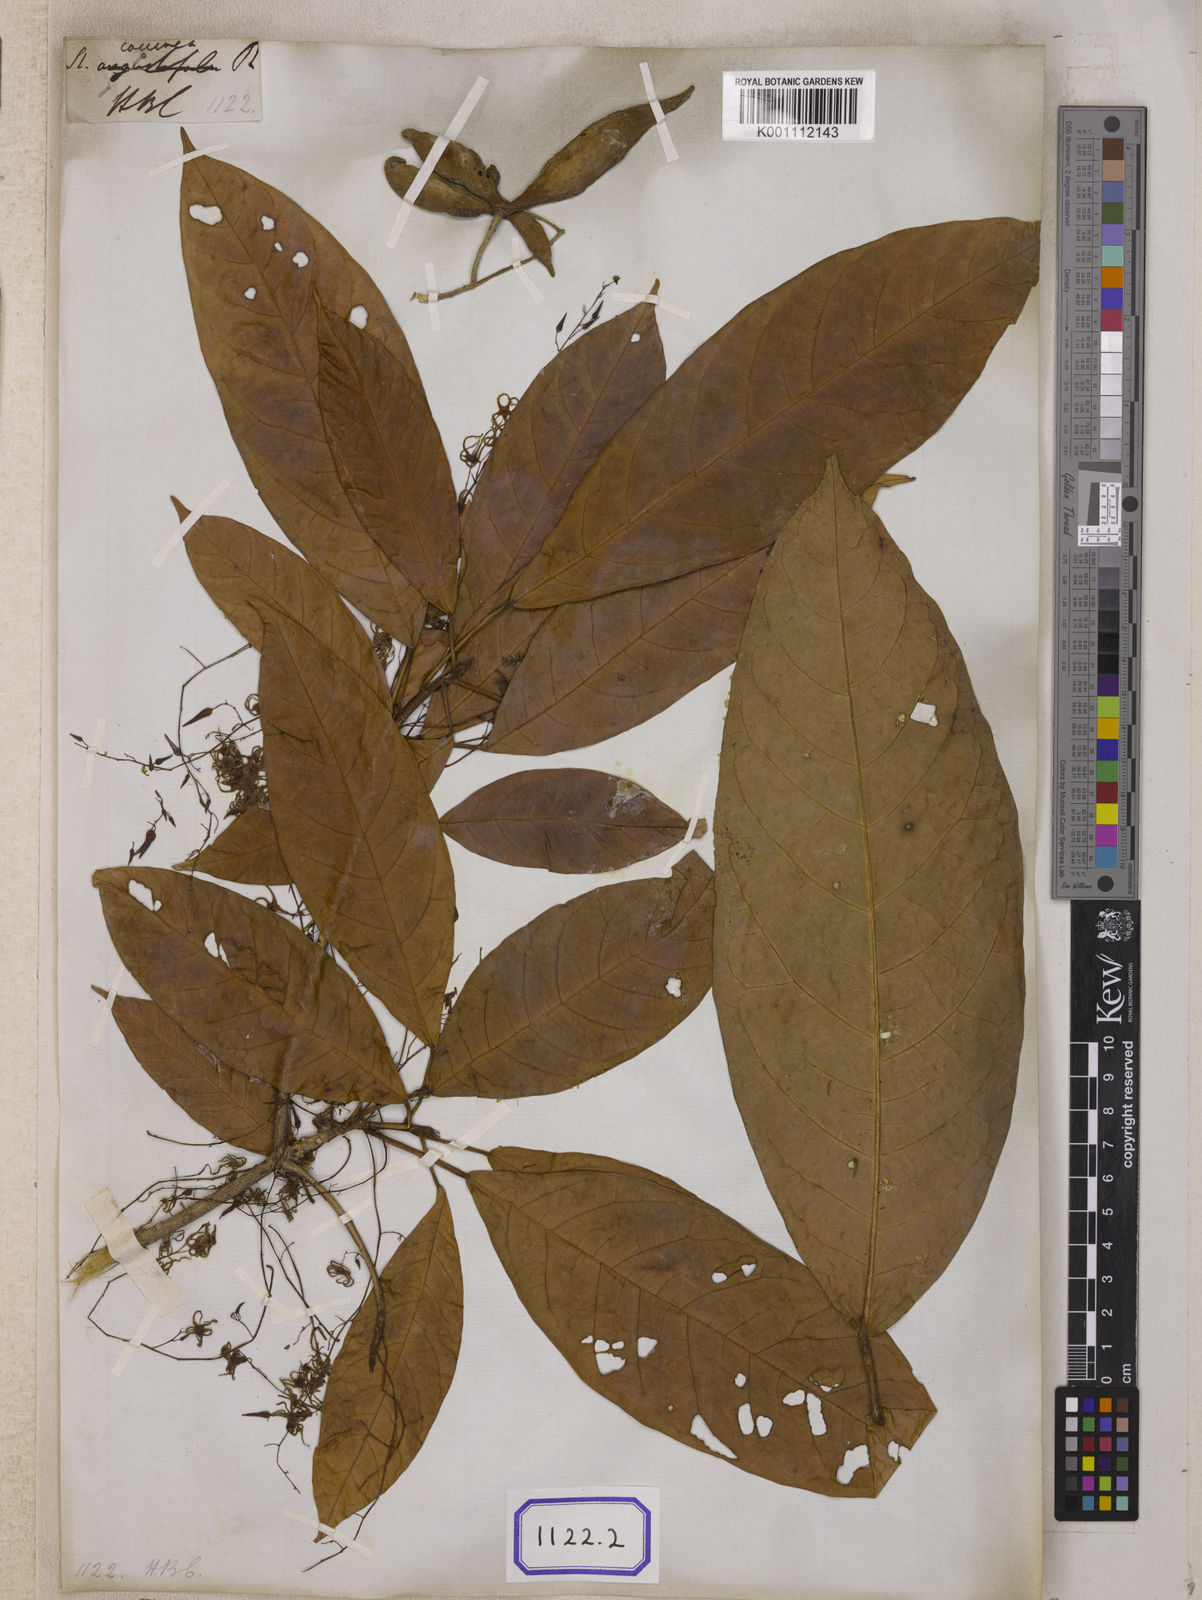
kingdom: Plantae
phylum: Tracheophyta
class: Magnoliopsida
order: Malvales
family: Malvaceae
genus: Sterculia
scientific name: Sterculia
